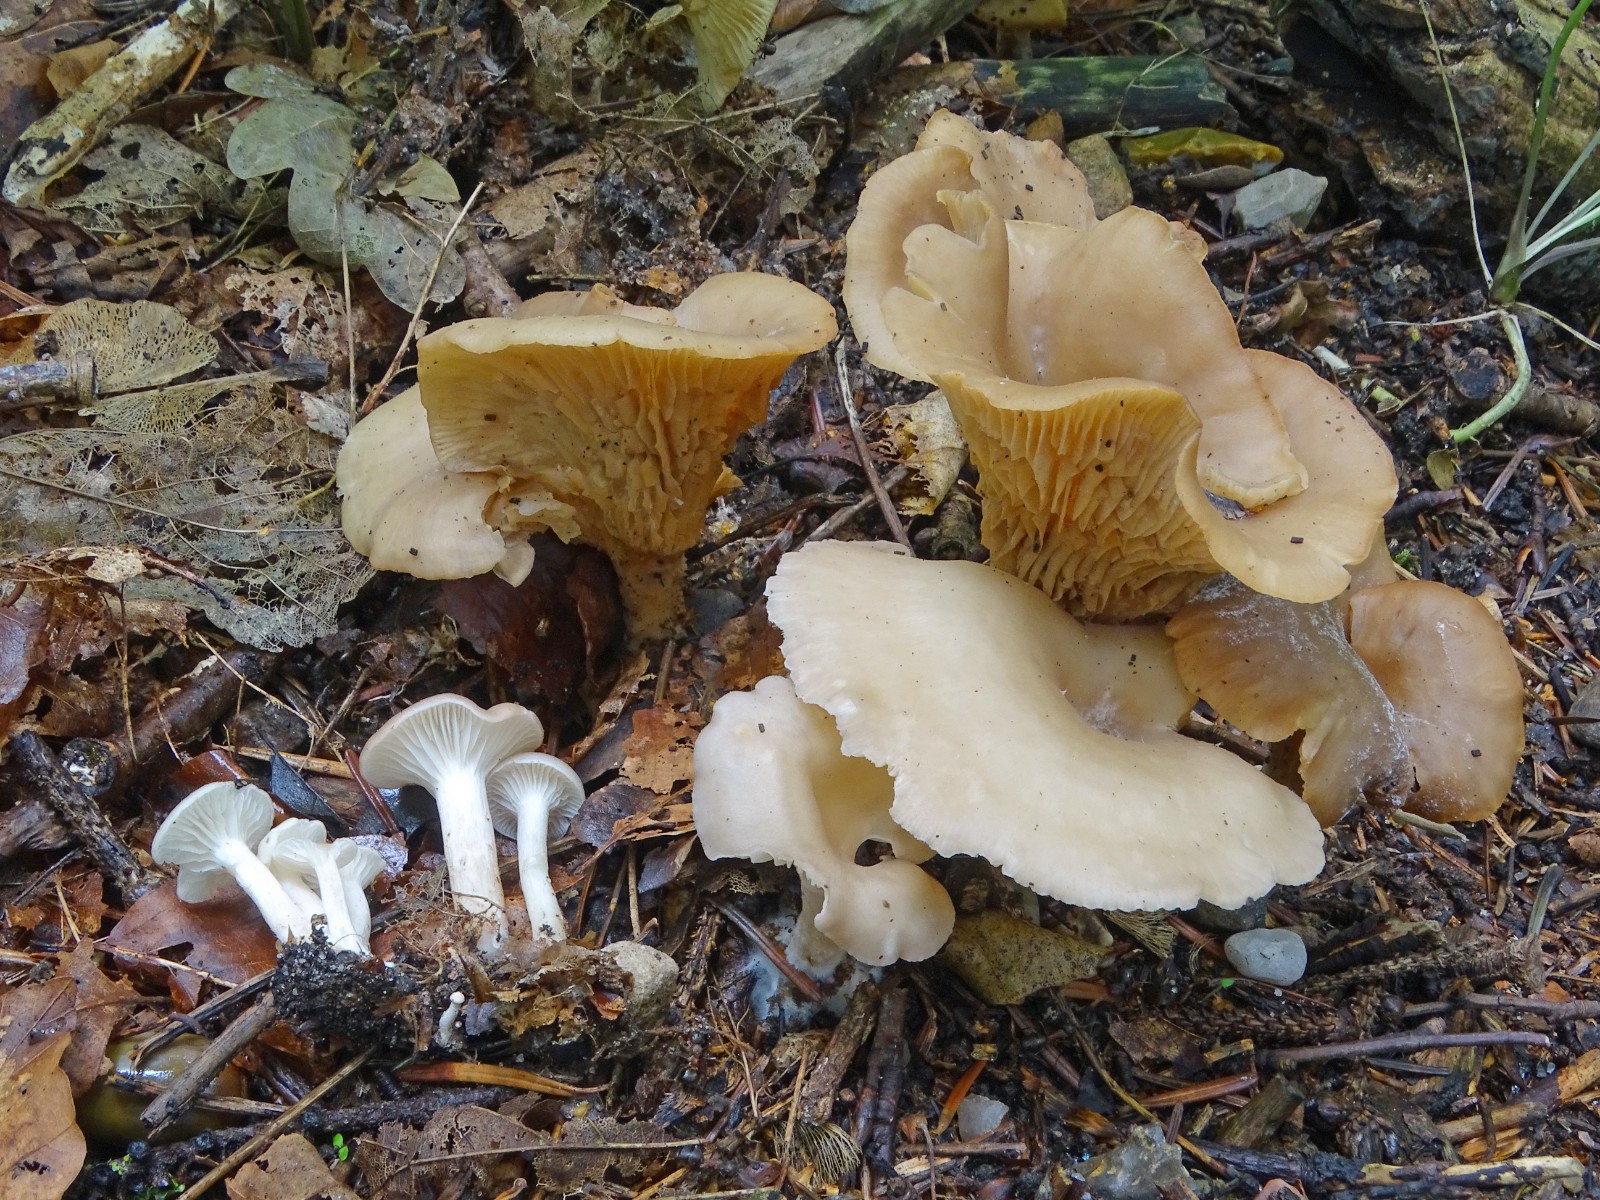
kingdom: Fungi
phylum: Basidiomycota
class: Agaricomycetes
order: Agaricales
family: Tricholomataceae
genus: Clitocybe
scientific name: Clitocybe phaeophthalma
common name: stinkende tragthat
